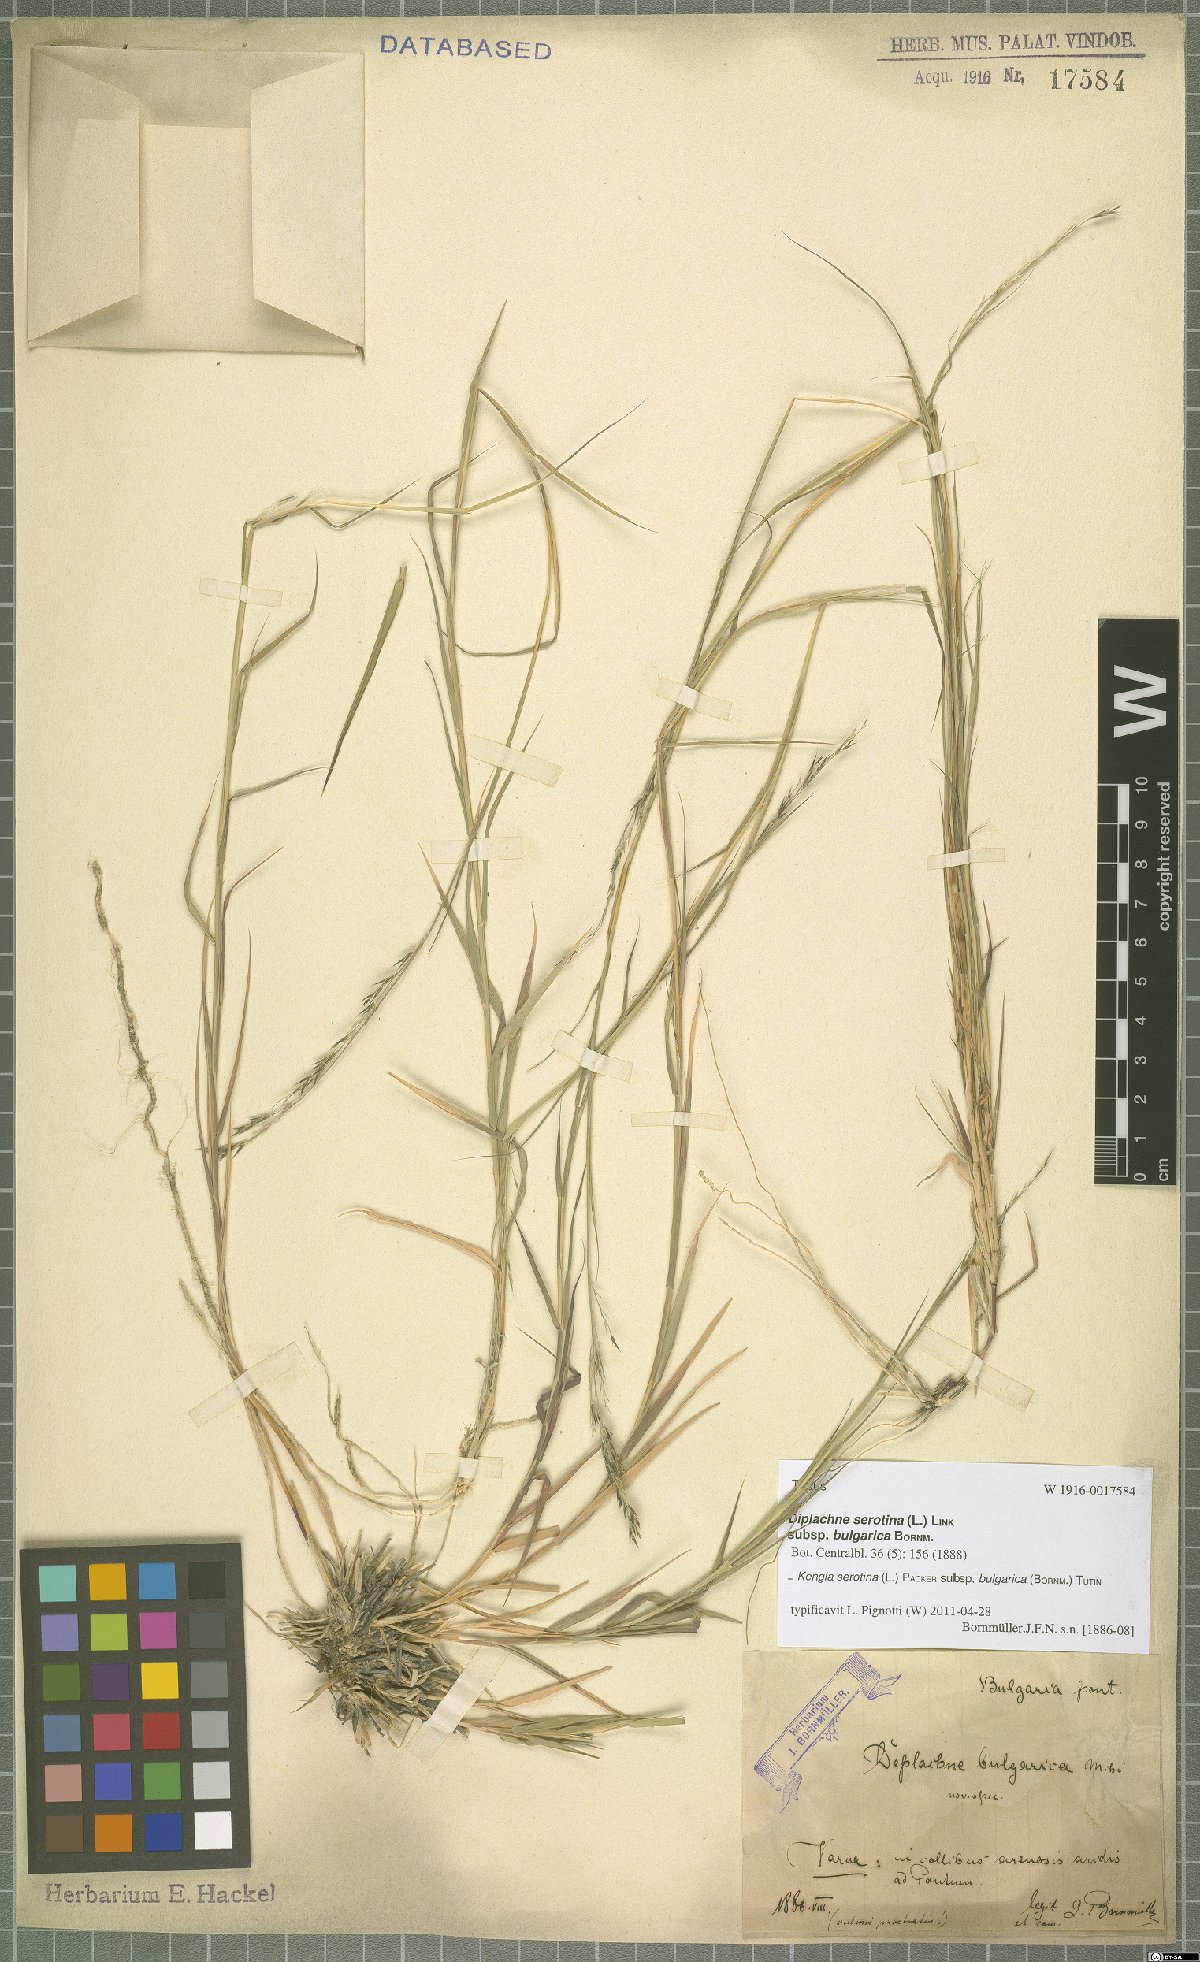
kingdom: Plantae
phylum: Tracheophyta
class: Liliopsida
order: Poales
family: Poaceae
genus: Cleistogenes
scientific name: Cleistogenes serotina
